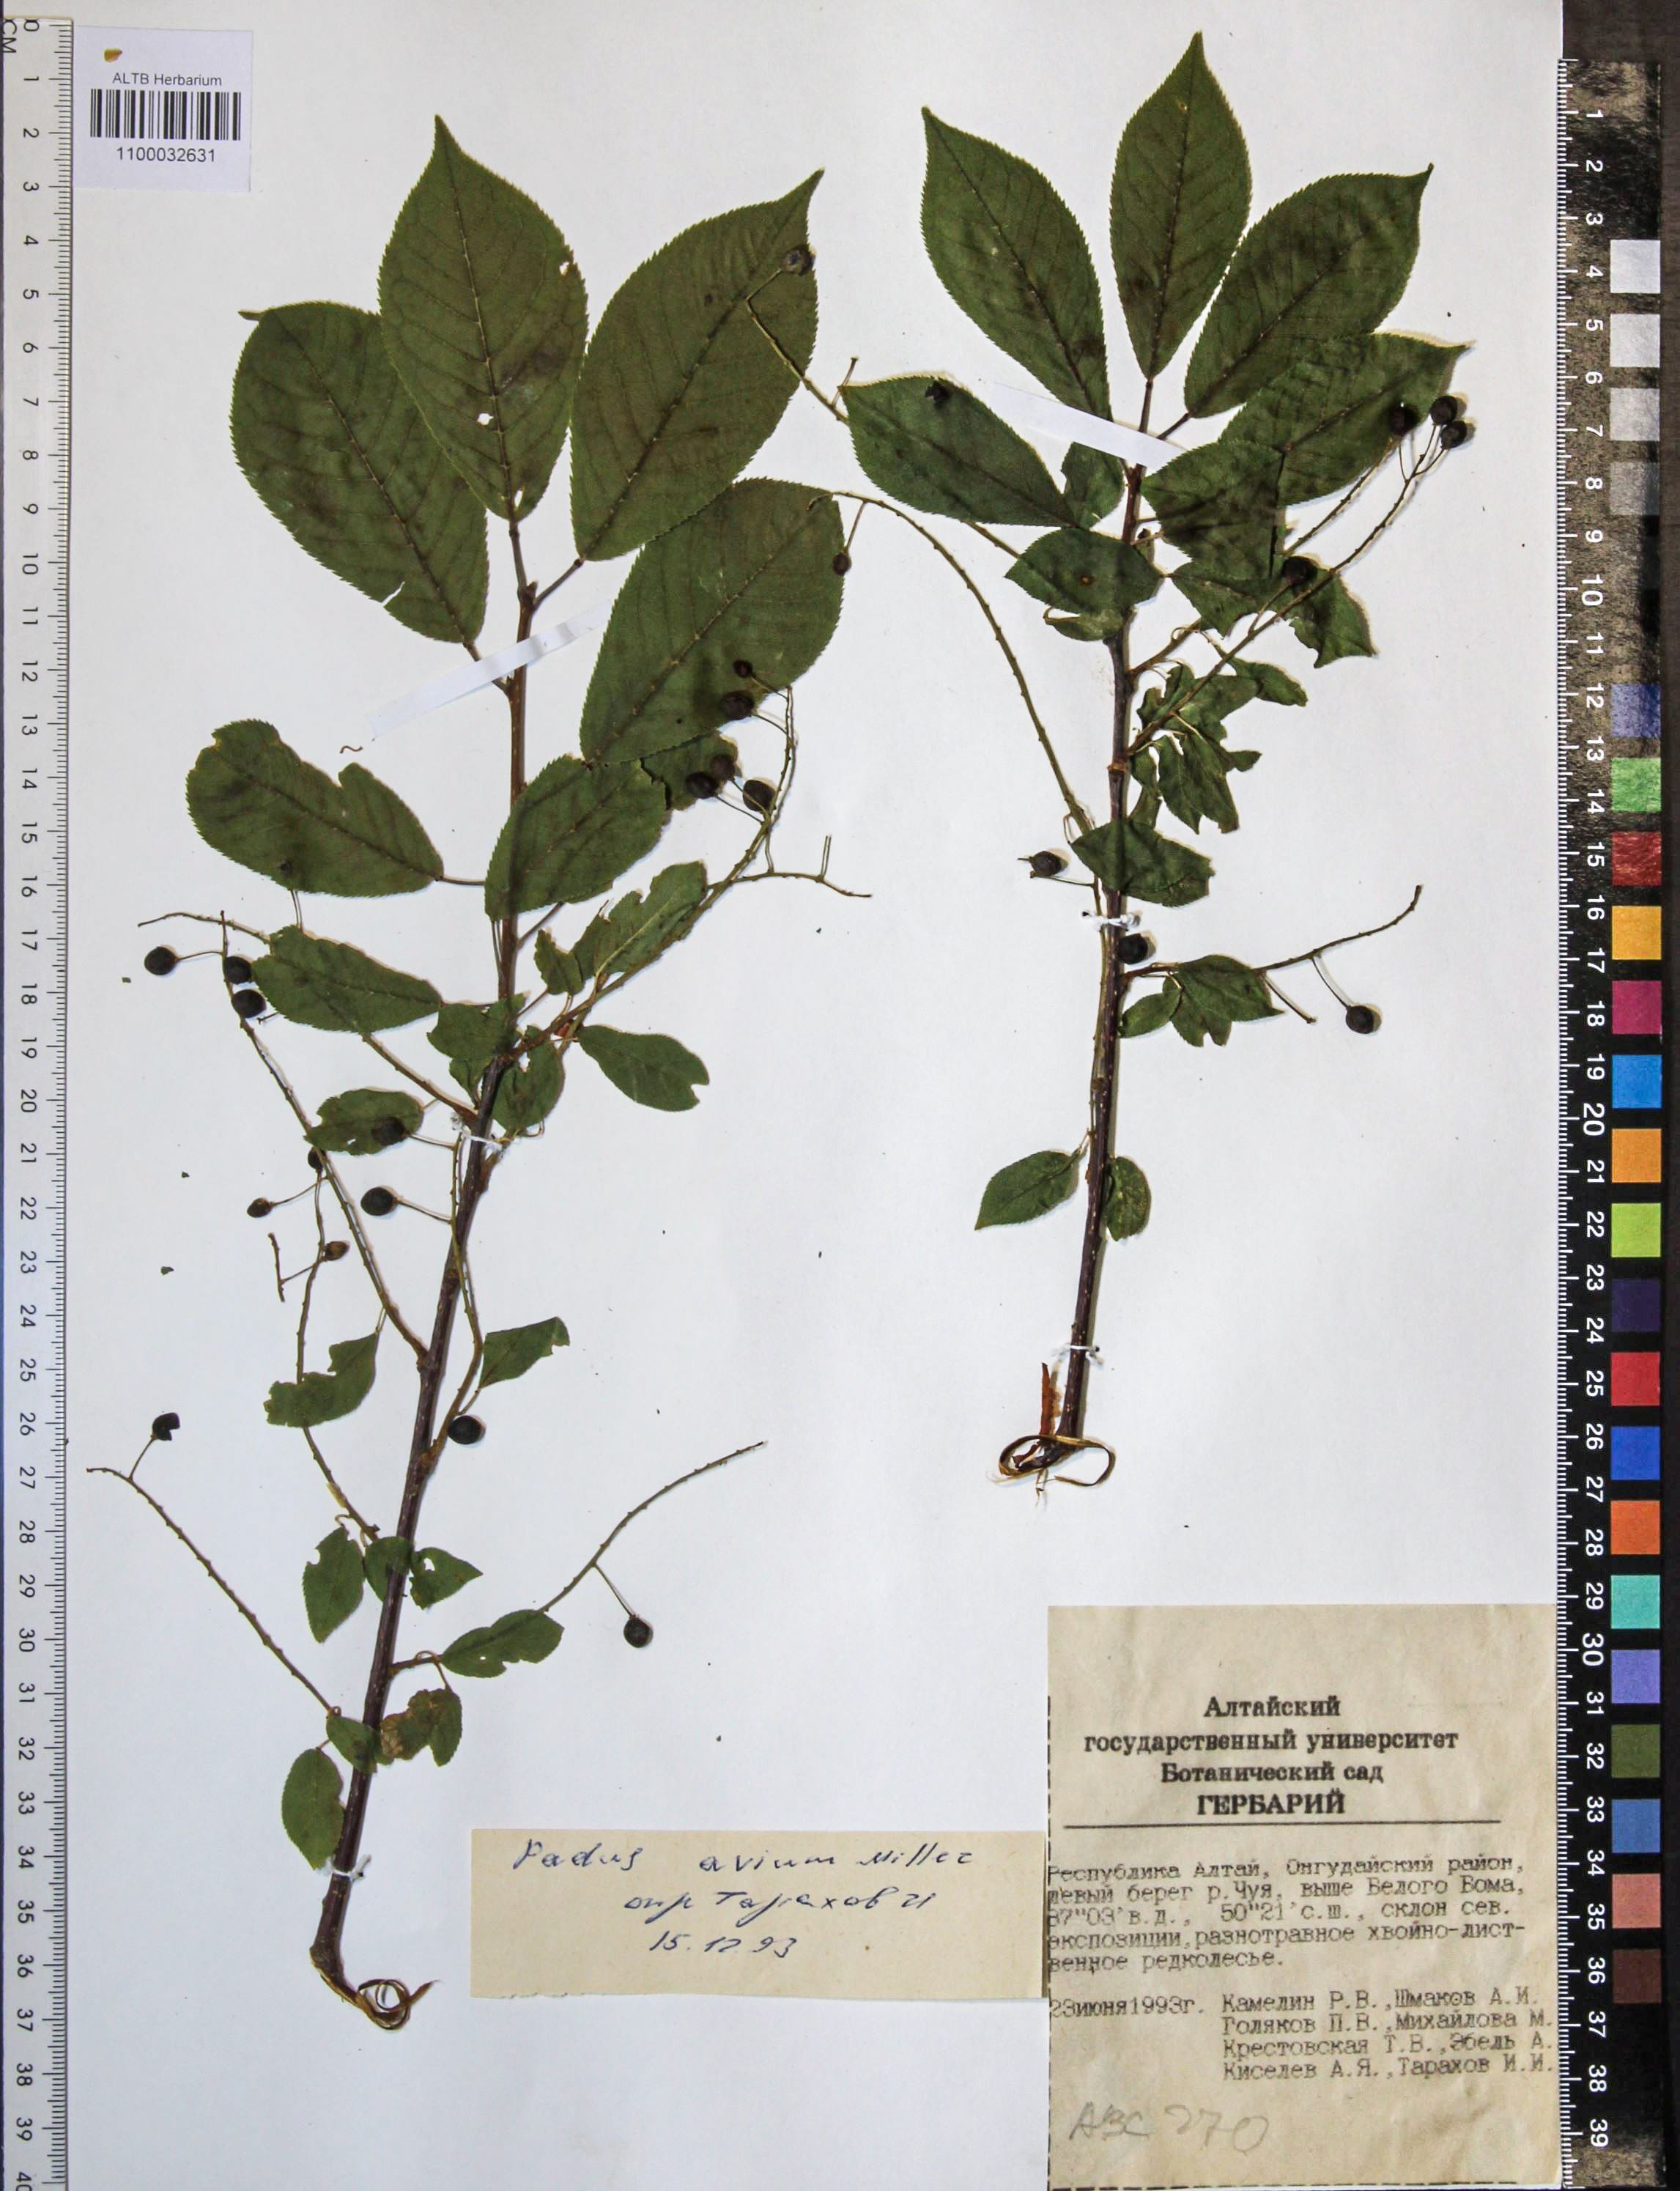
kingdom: Plantae
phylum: Tracheophyta
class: Magnoliopsida
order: Rosales
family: Rosaceae
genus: Prunus
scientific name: Prunus padus
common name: Bird cherry
